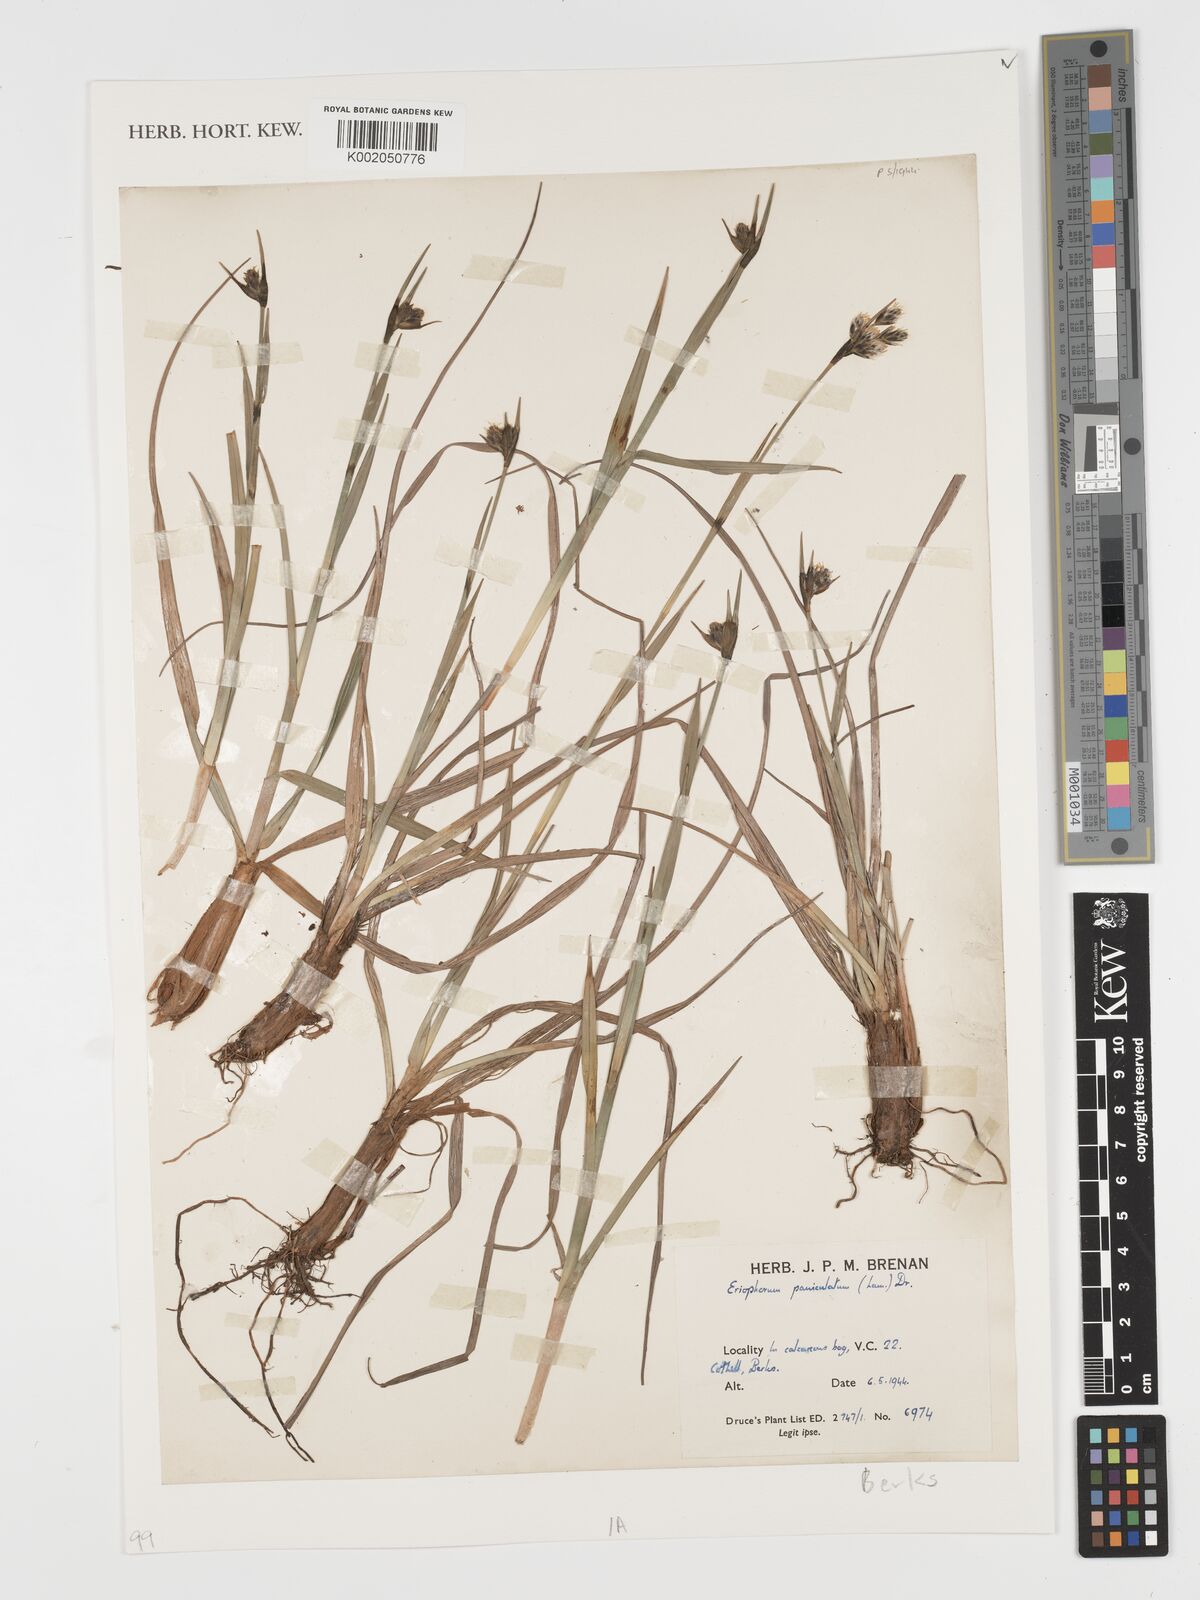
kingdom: Plantae
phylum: Tracheophyta
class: Liliopsida
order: Poales
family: Cyperaceae
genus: Eriophorum
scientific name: Eriophorum angustifolium
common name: Common cottongrass
